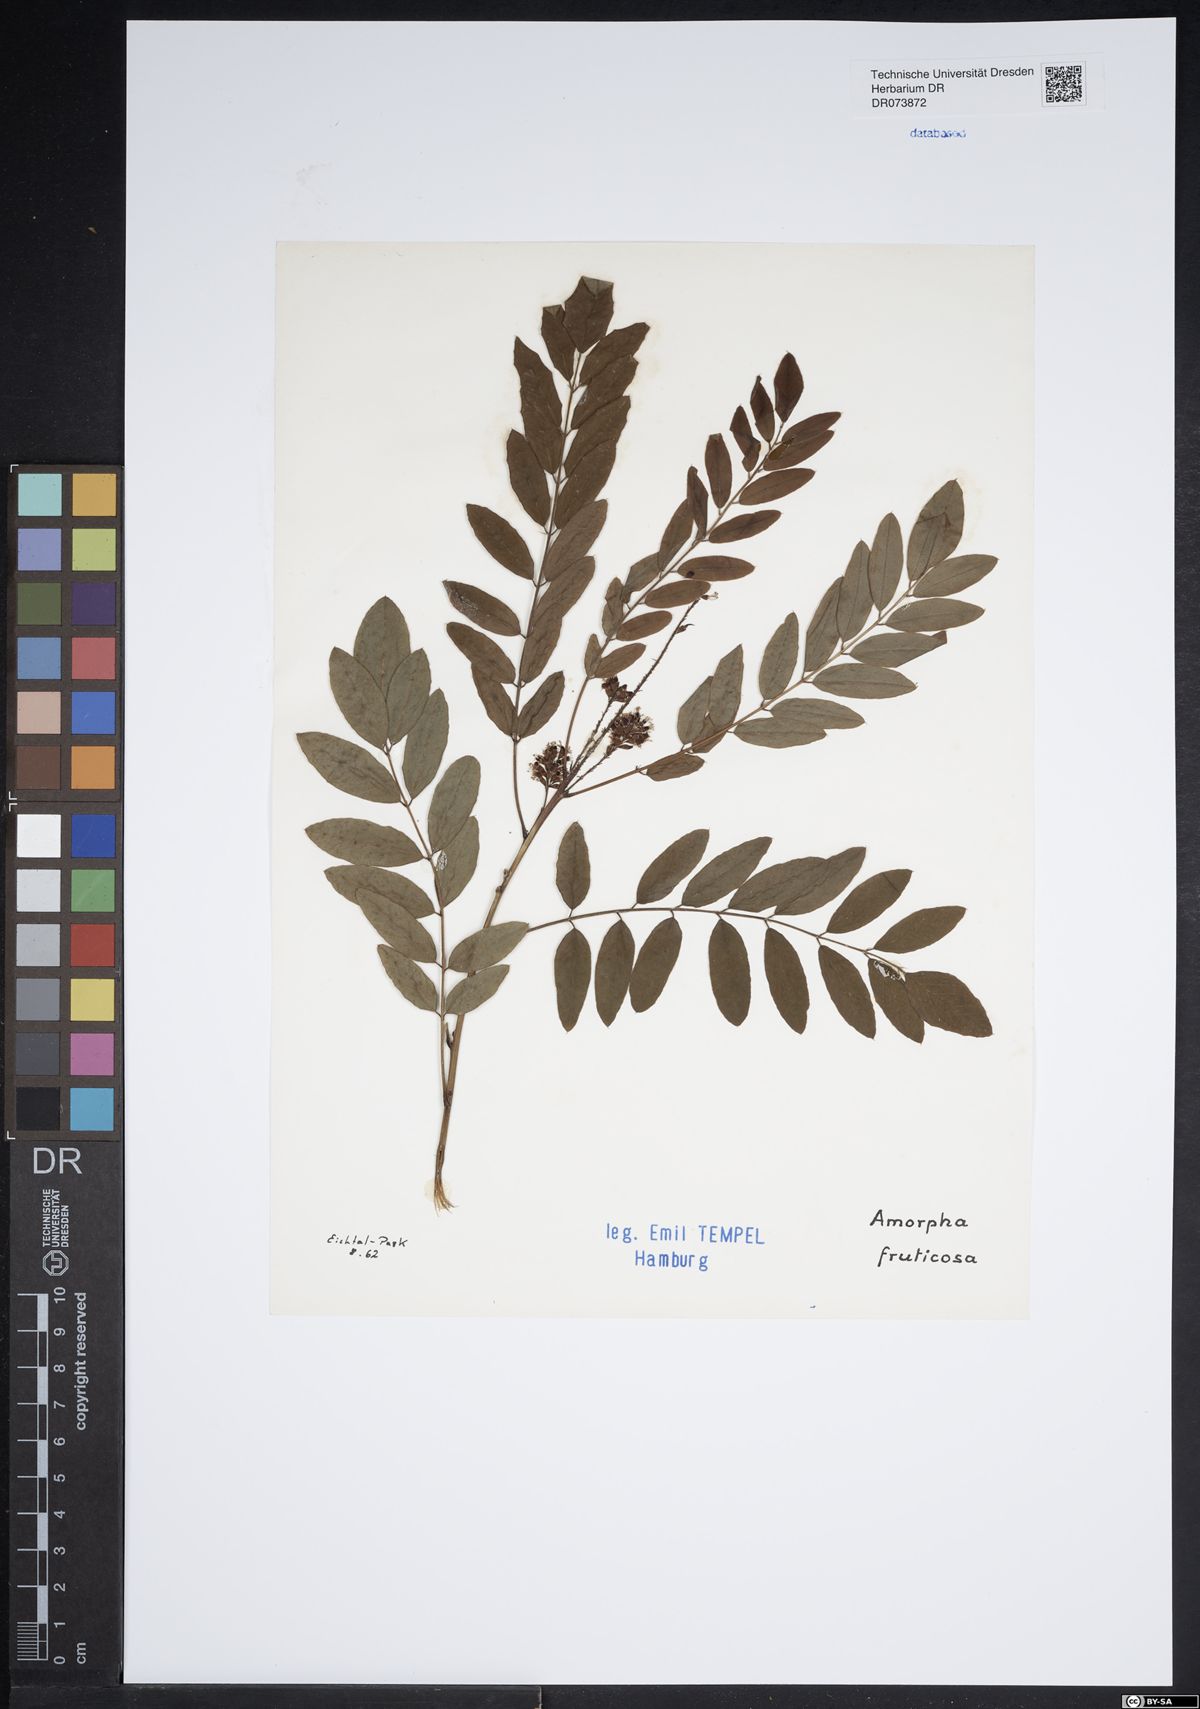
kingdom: Plantae
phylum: Tracheophyta
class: Magnoliopsida
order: Fabales
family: Fabaceae
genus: Amorpha
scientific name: Amorpha fruticosa
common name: False indigo
